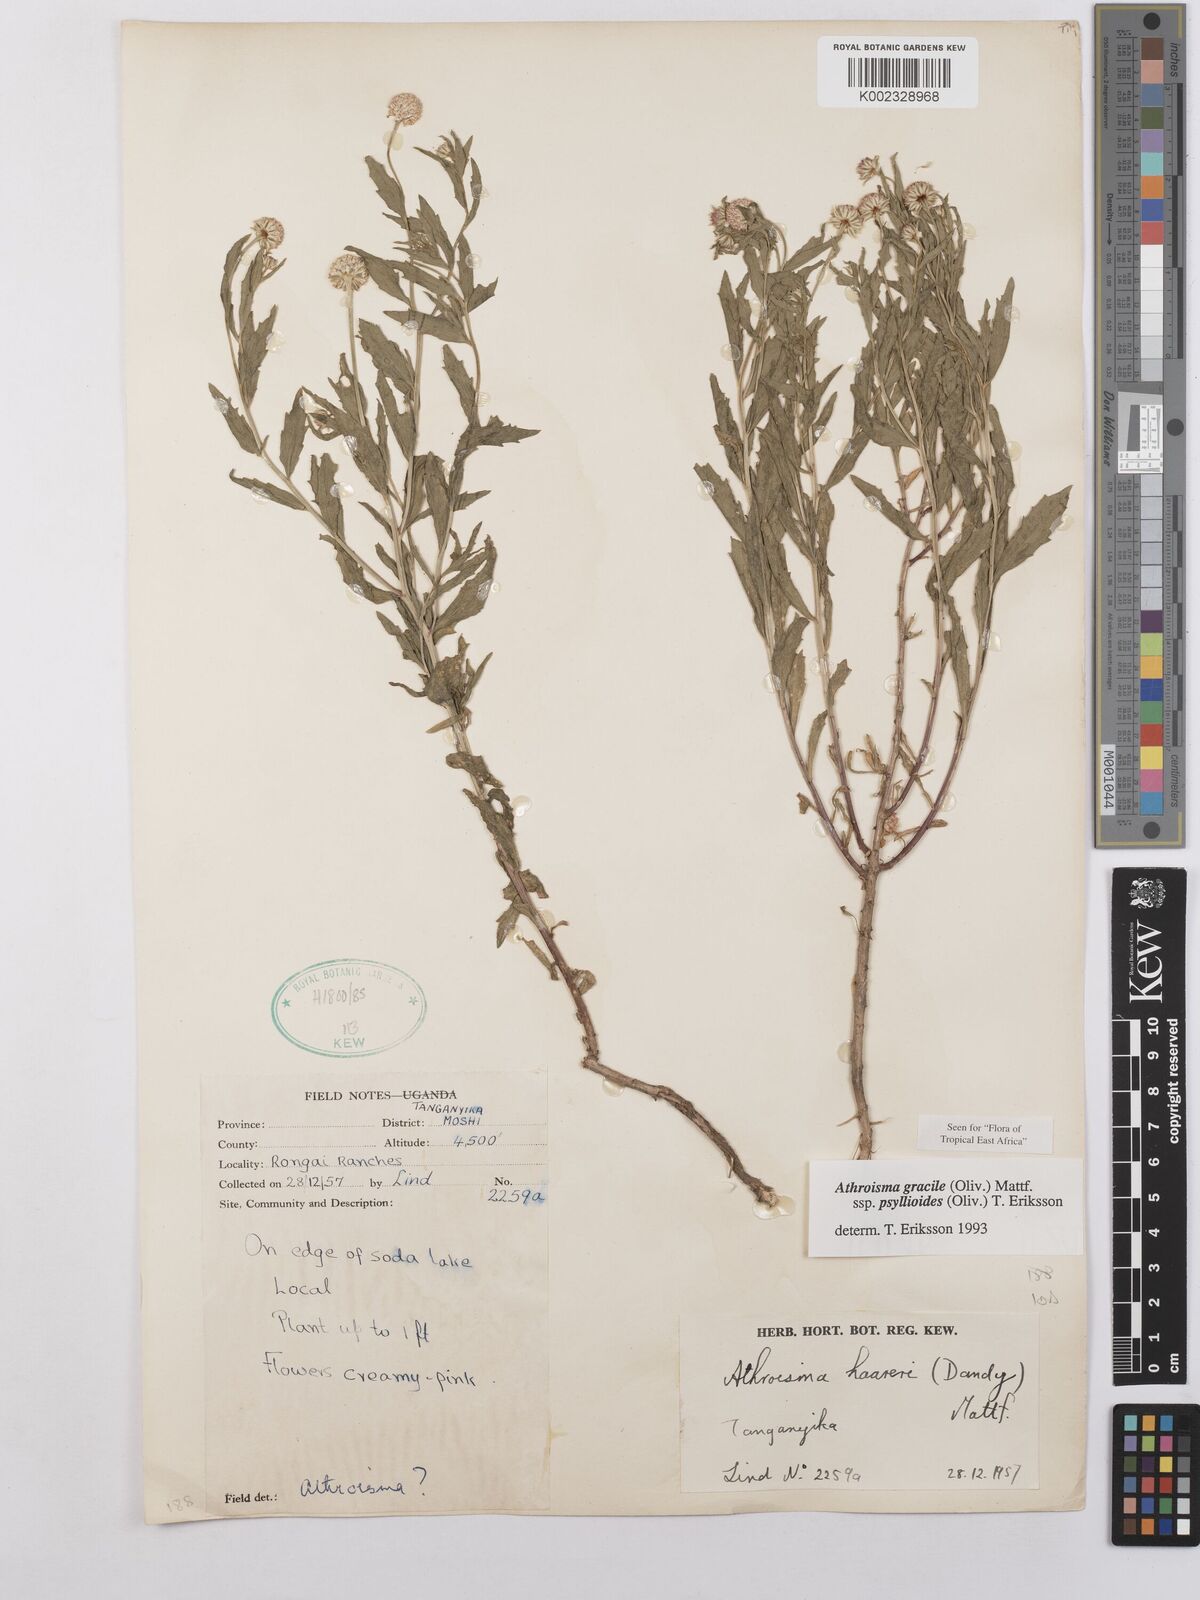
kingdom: Plantae
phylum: Tracheophyta
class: Magnoliopsida
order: Asterales
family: Asteraceae
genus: Athroisma
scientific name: Athroisma gracile
